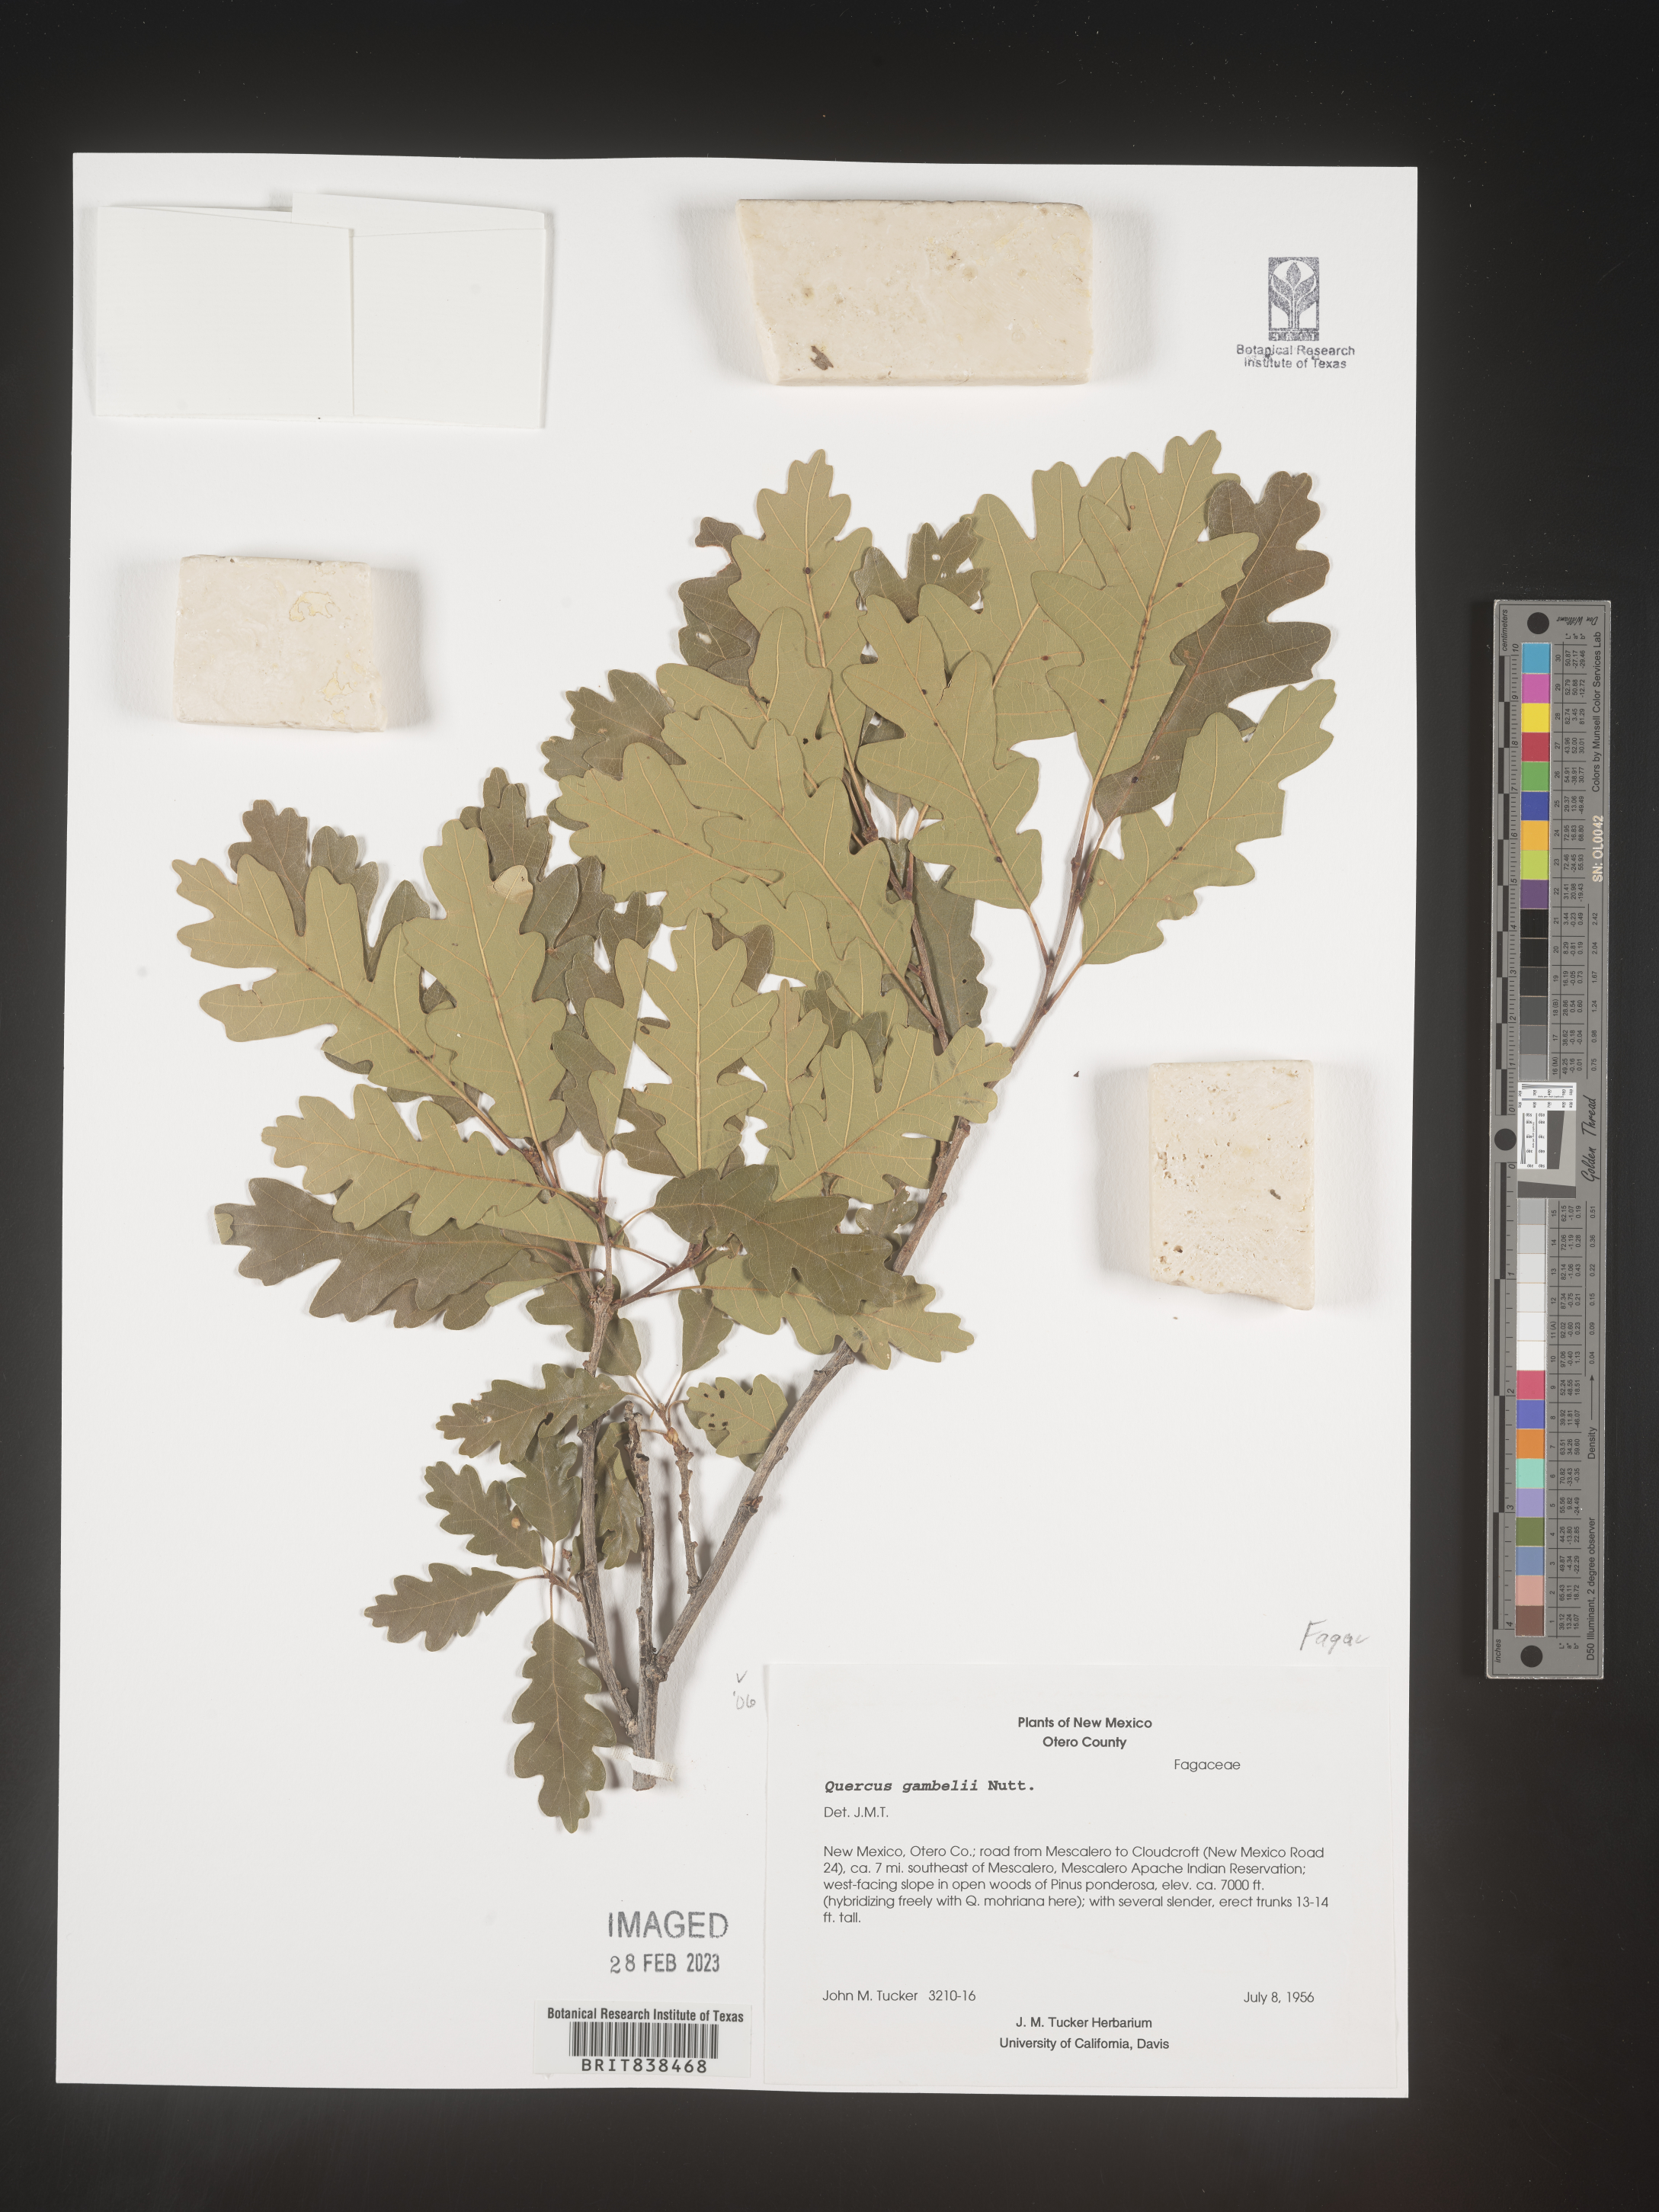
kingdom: Plantae
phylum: Tracheophyta
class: Magnoliopsida
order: Fagales
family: Fagaceae
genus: Quercus
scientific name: Quercus gambelii
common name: Gambel oak
